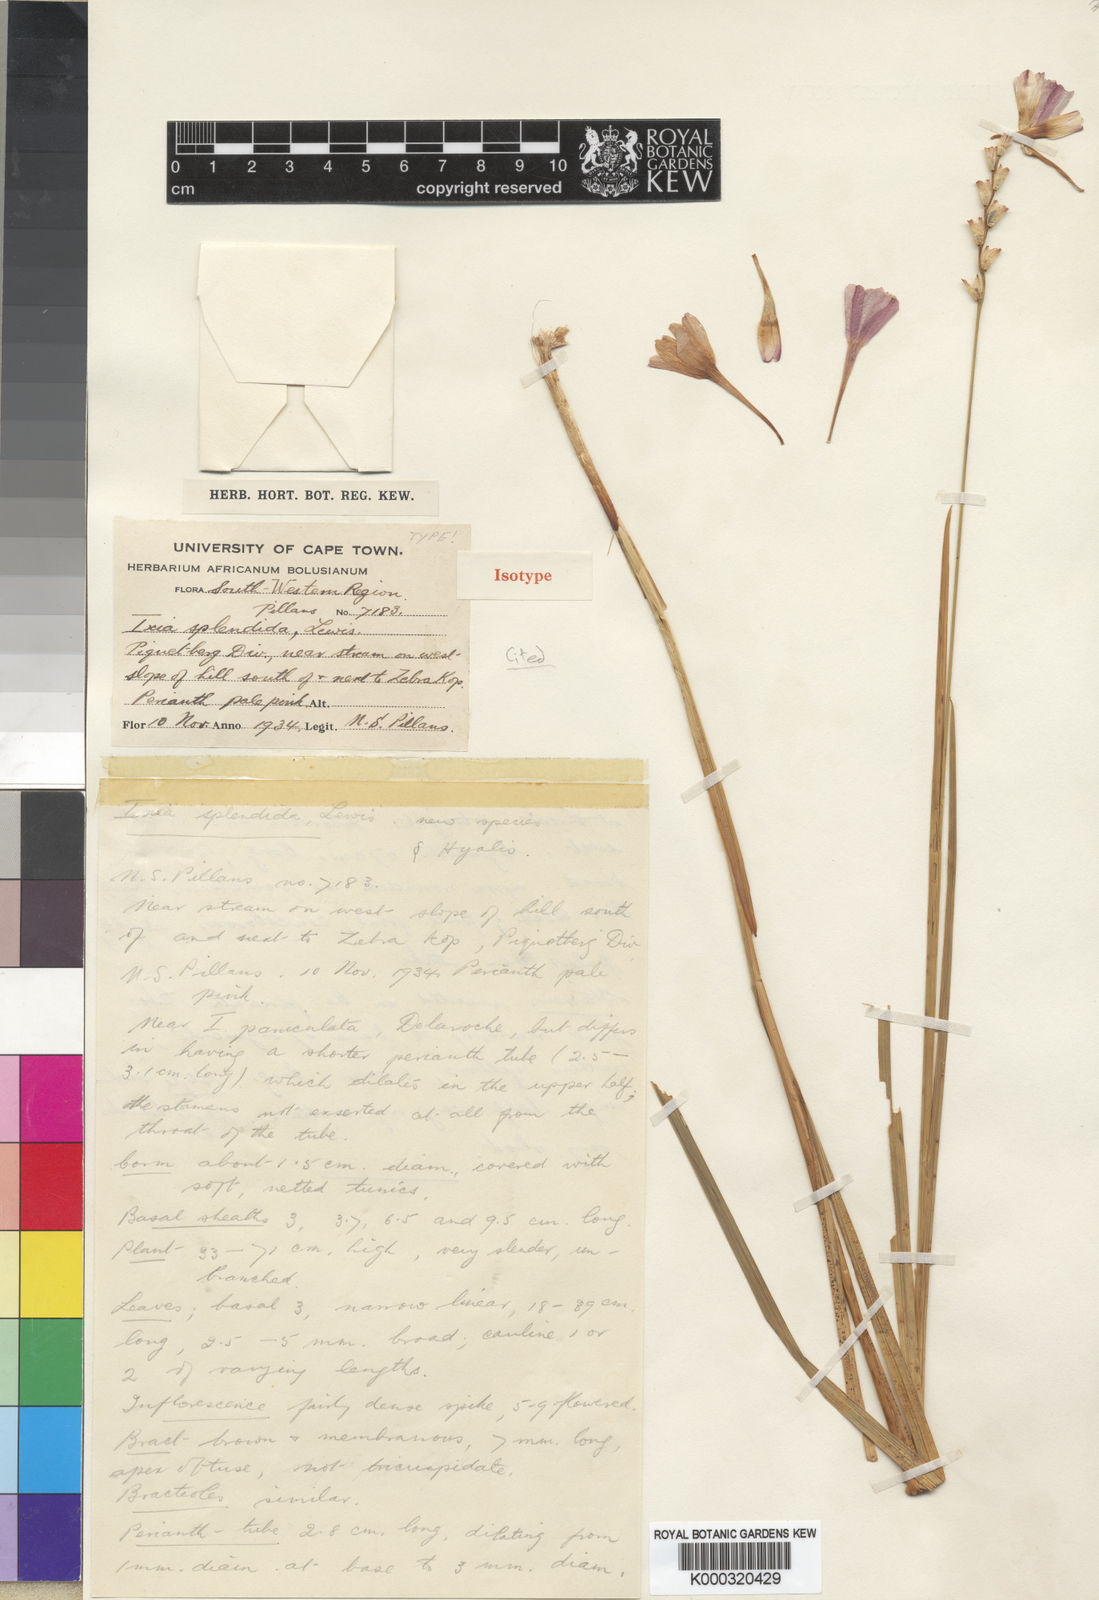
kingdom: Plantae
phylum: Tracheophyta
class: Liliopsida
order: Asparagales
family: Iridaceae
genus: Ixia
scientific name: Ixia splendida
